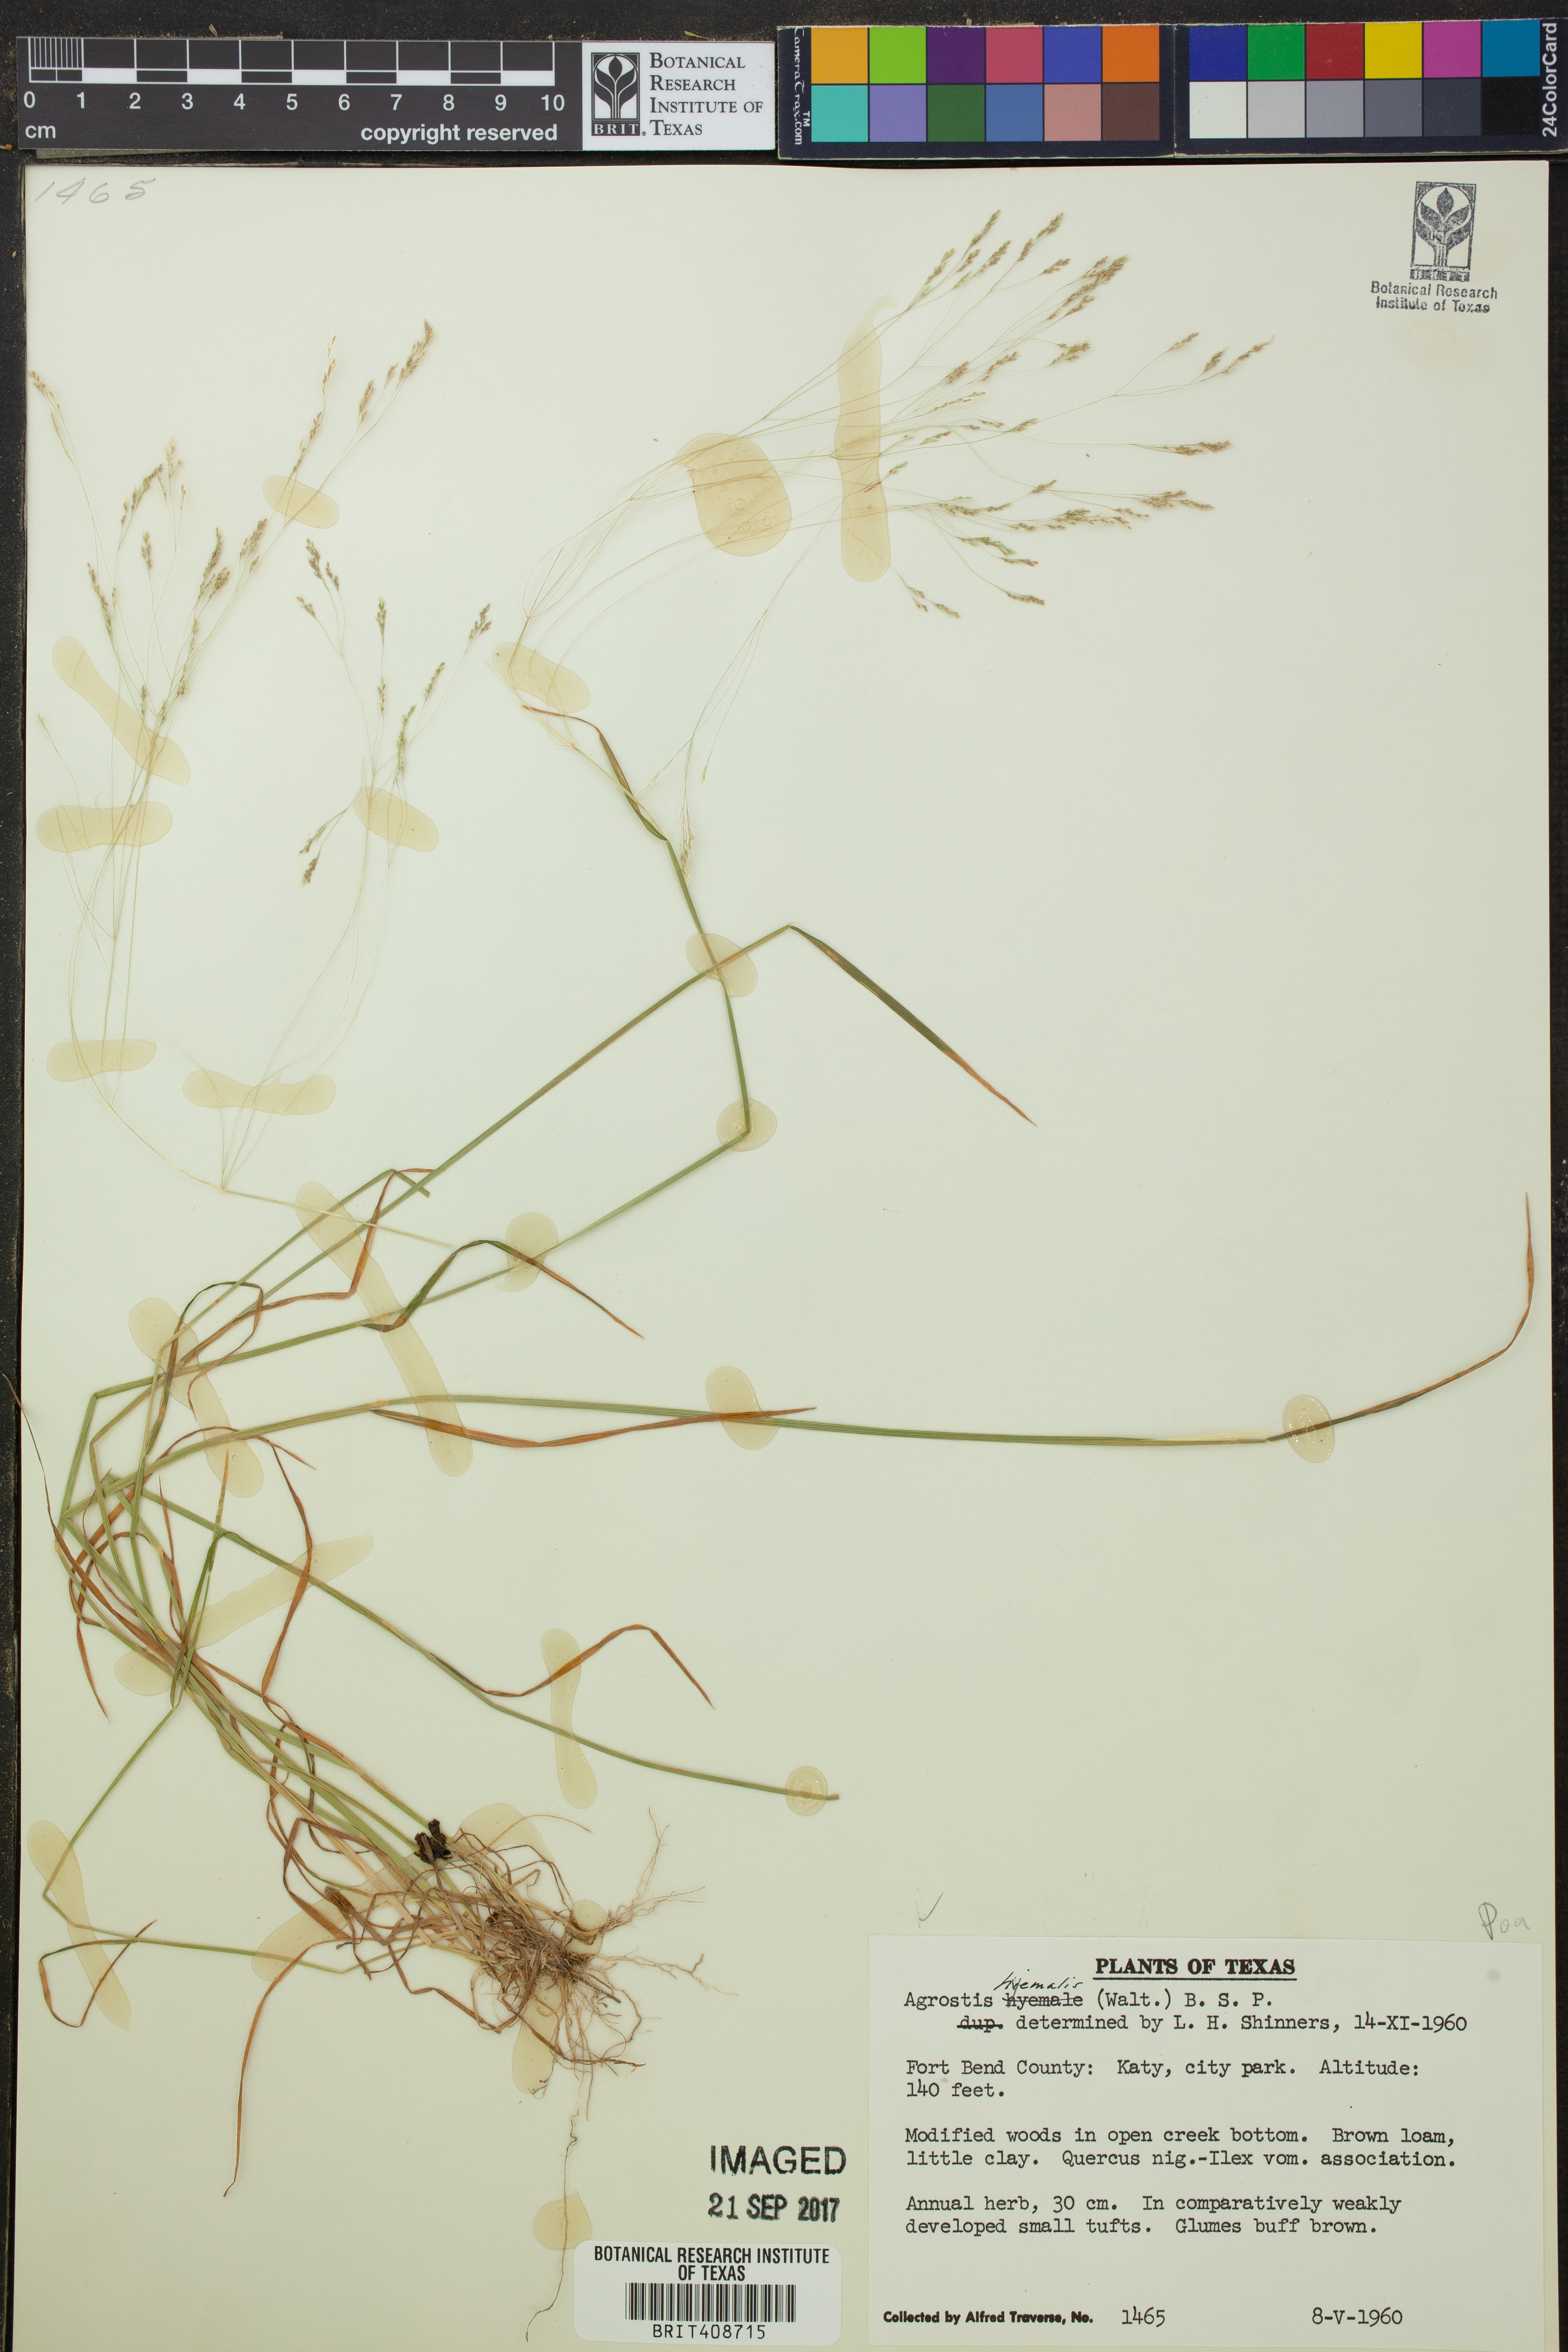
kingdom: Plantae
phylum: Tracheophyta
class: Liliopsida
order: Poales
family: Poaceae
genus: Agrostis
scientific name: Agrostis hyemalis
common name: Small bent
